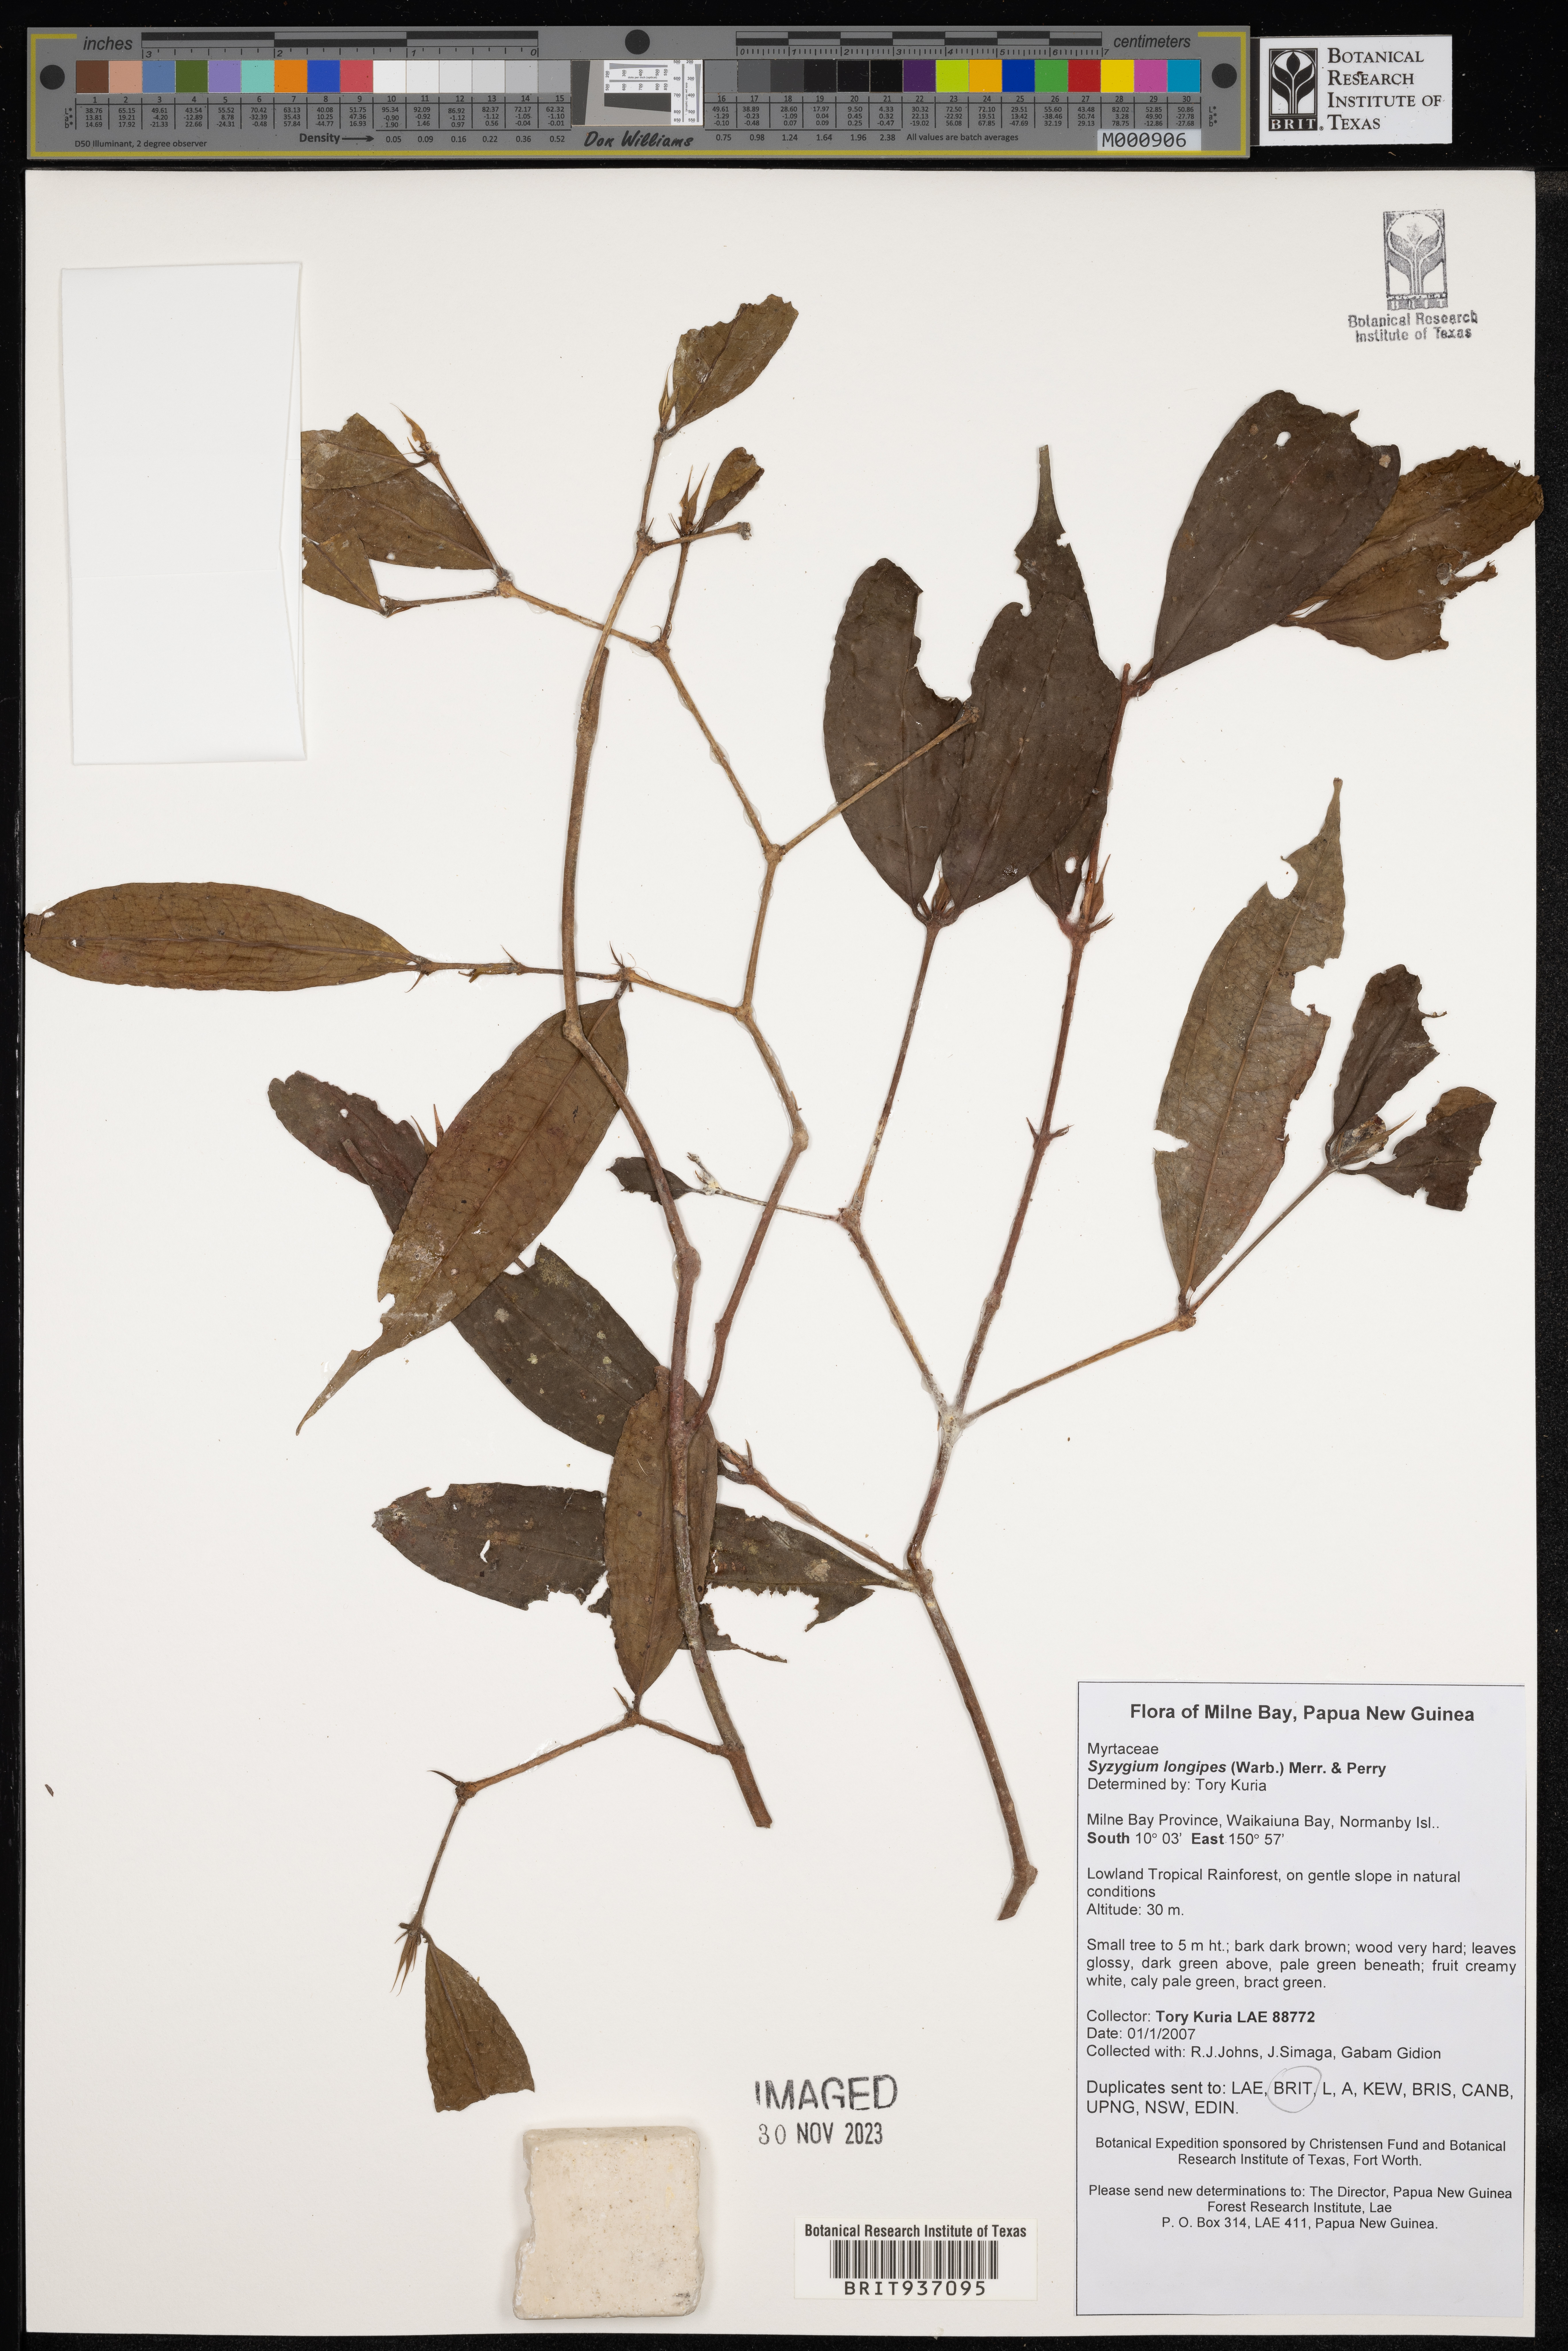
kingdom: Plantae
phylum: Tracheophyta
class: Magnoliopsida
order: Myrtales
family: Myrtaceae
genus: Syzygium
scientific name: Syzygium
